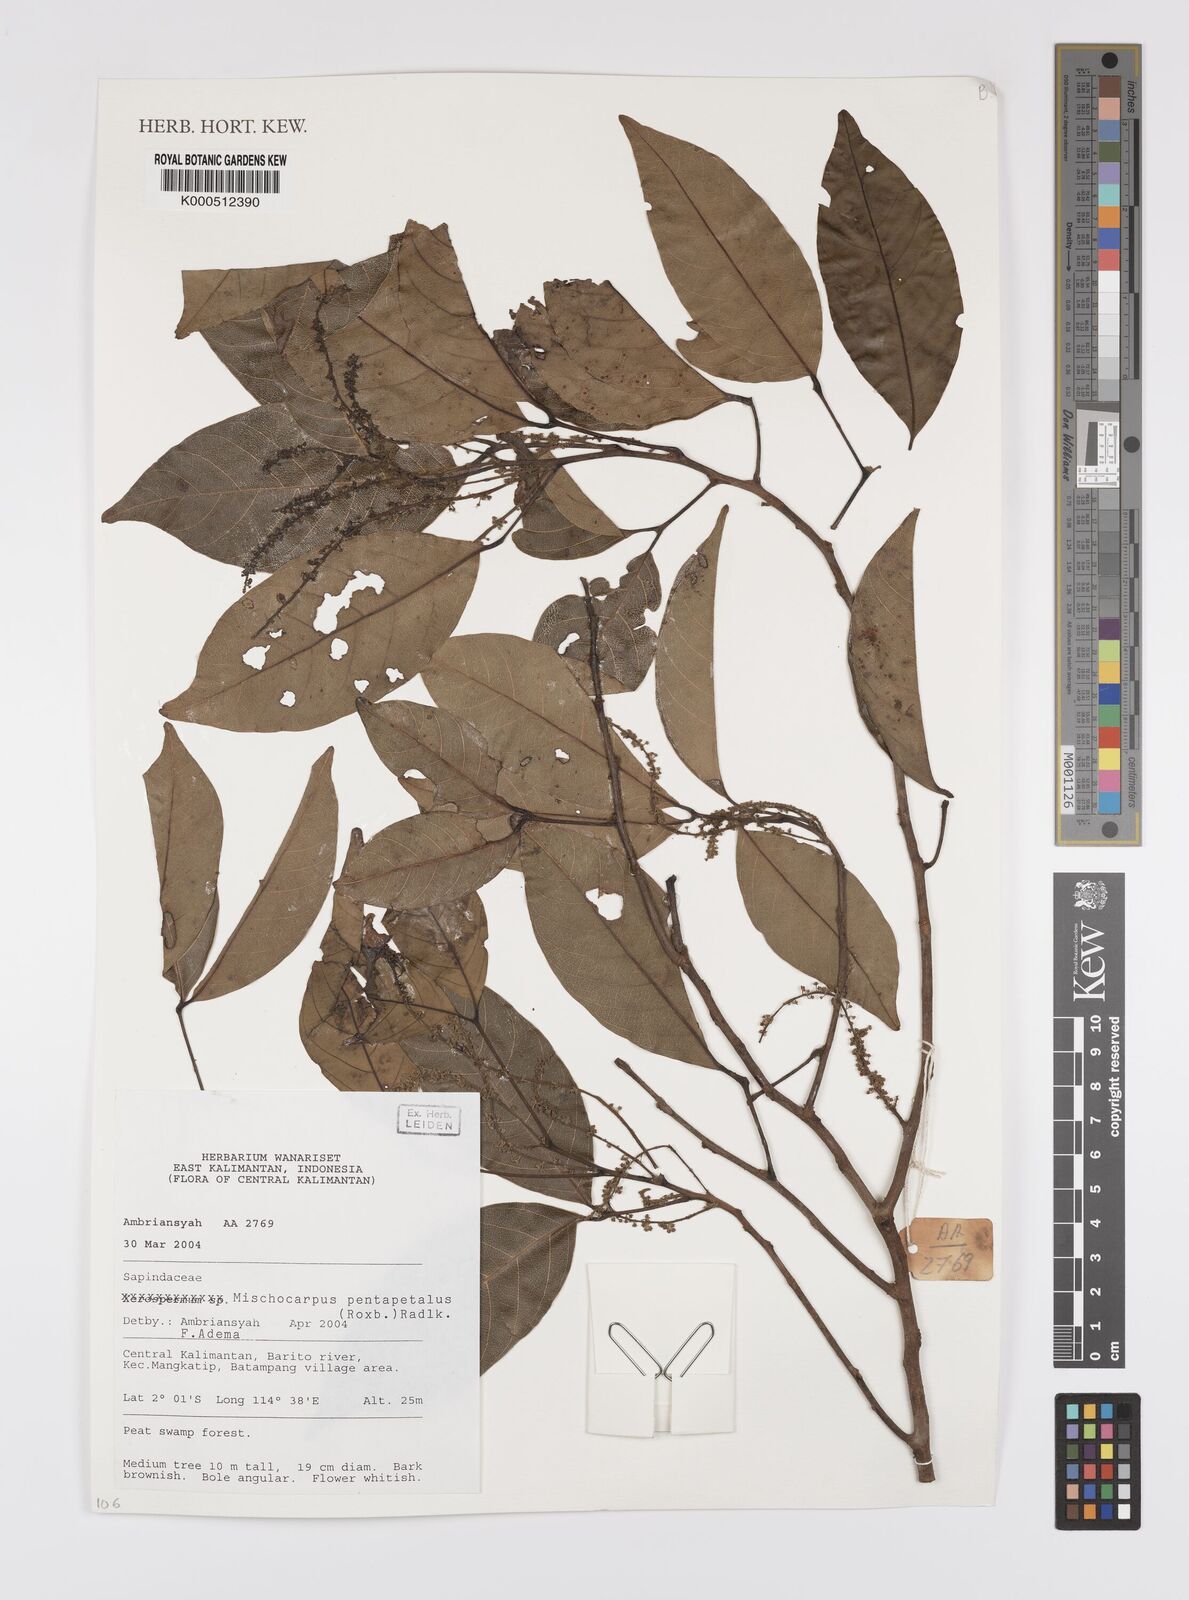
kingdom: Plantae
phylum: Tracheophyta
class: Magnoliopsida
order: Sapindales
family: Sapindaceae
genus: Mischocarpus
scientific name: Mischocarpus pentapetalus
